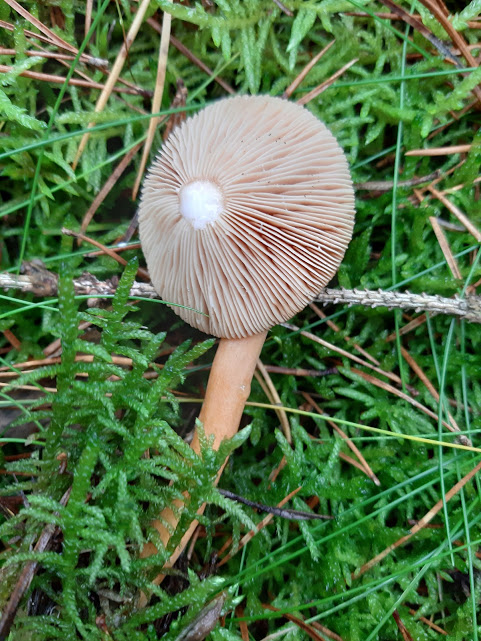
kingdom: Fungi
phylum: Basidiomycota
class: Agaricomycetes
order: Russulales
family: Russulaceae
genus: Lactarius
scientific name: Lactarius aurantiacus
